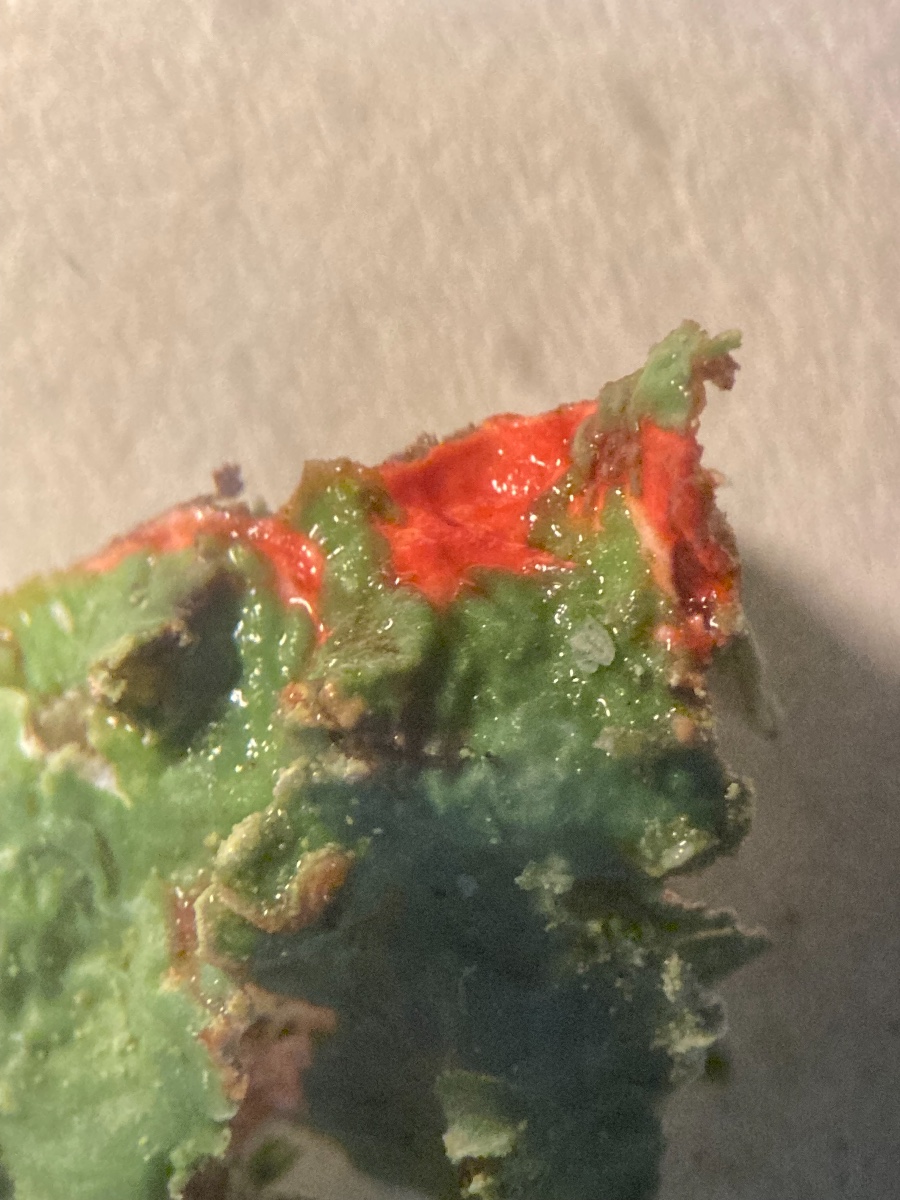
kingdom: Fungi
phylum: Ascomycota
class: Lecanoromycetes
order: Lecanorales
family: Parmeliaceae
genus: Punctelia
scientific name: Punctelia jeckeri
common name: randstøvet skållav
